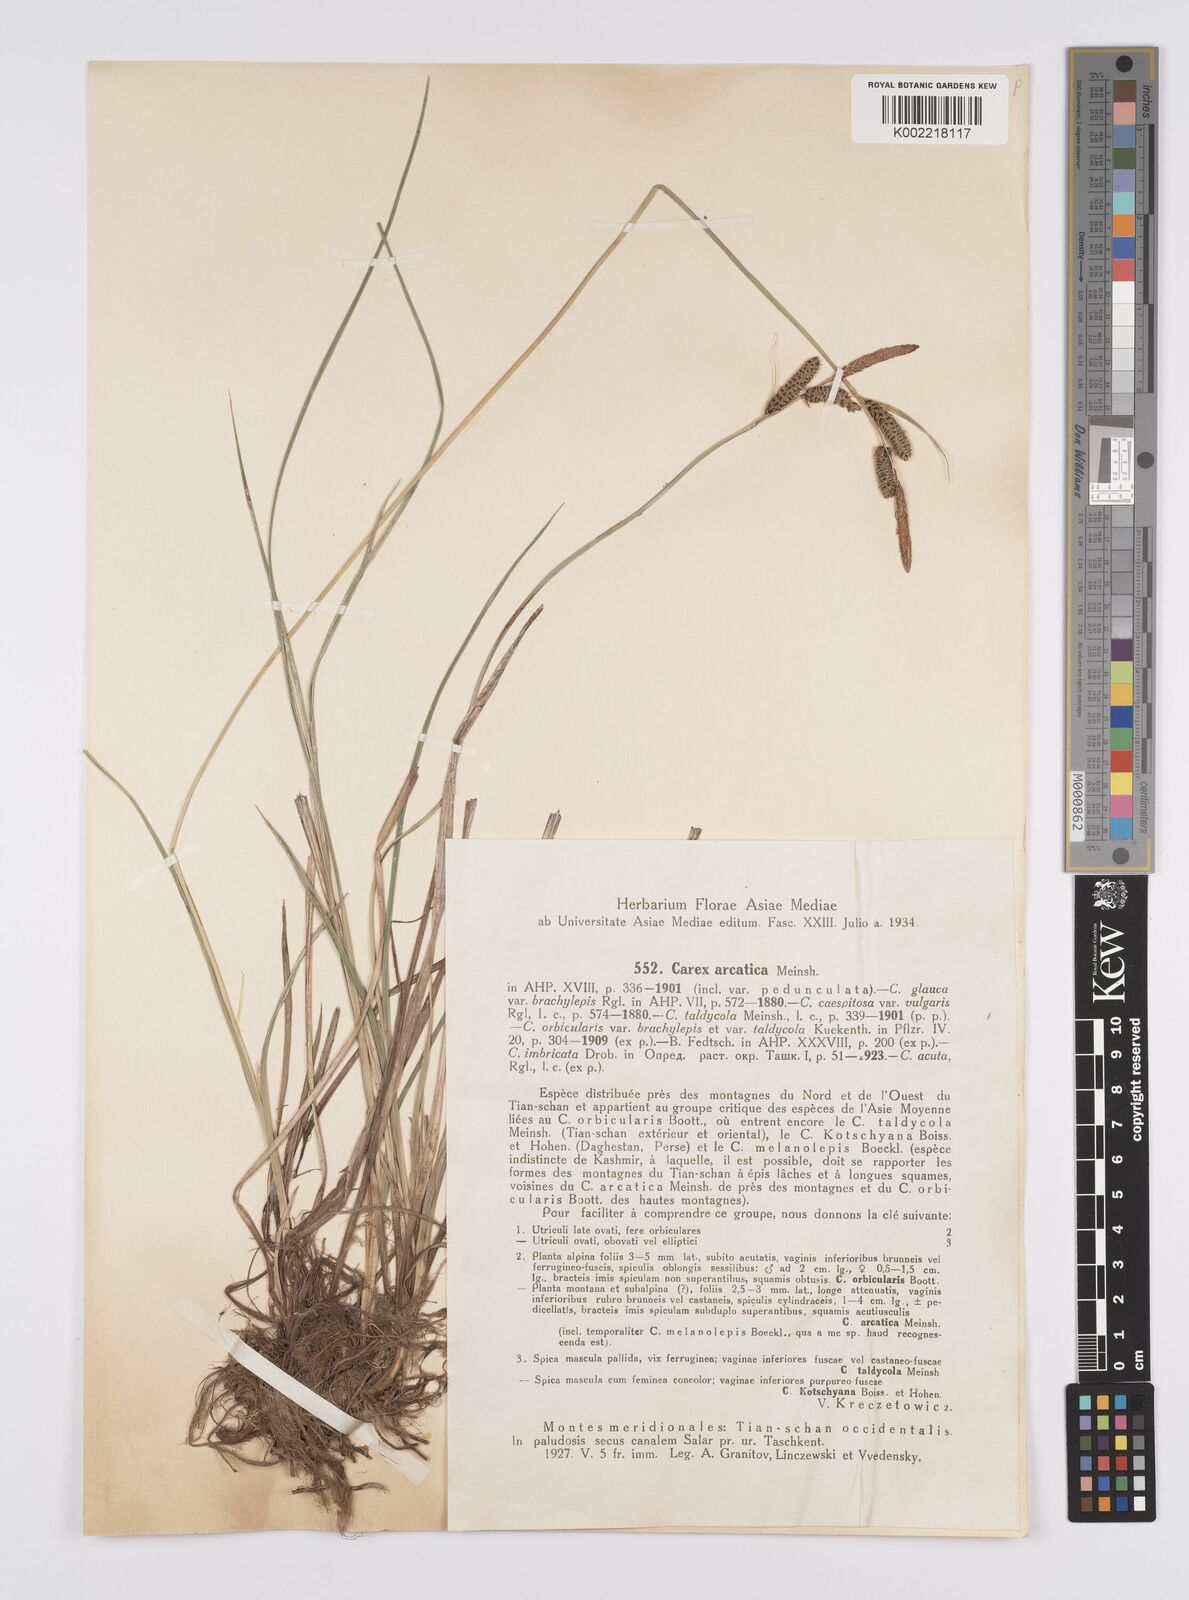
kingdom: Plantae
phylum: Tracheophyta
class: Liliopsida
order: Poales
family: Cyperaceae
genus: Carex
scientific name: Carex orbicularis
